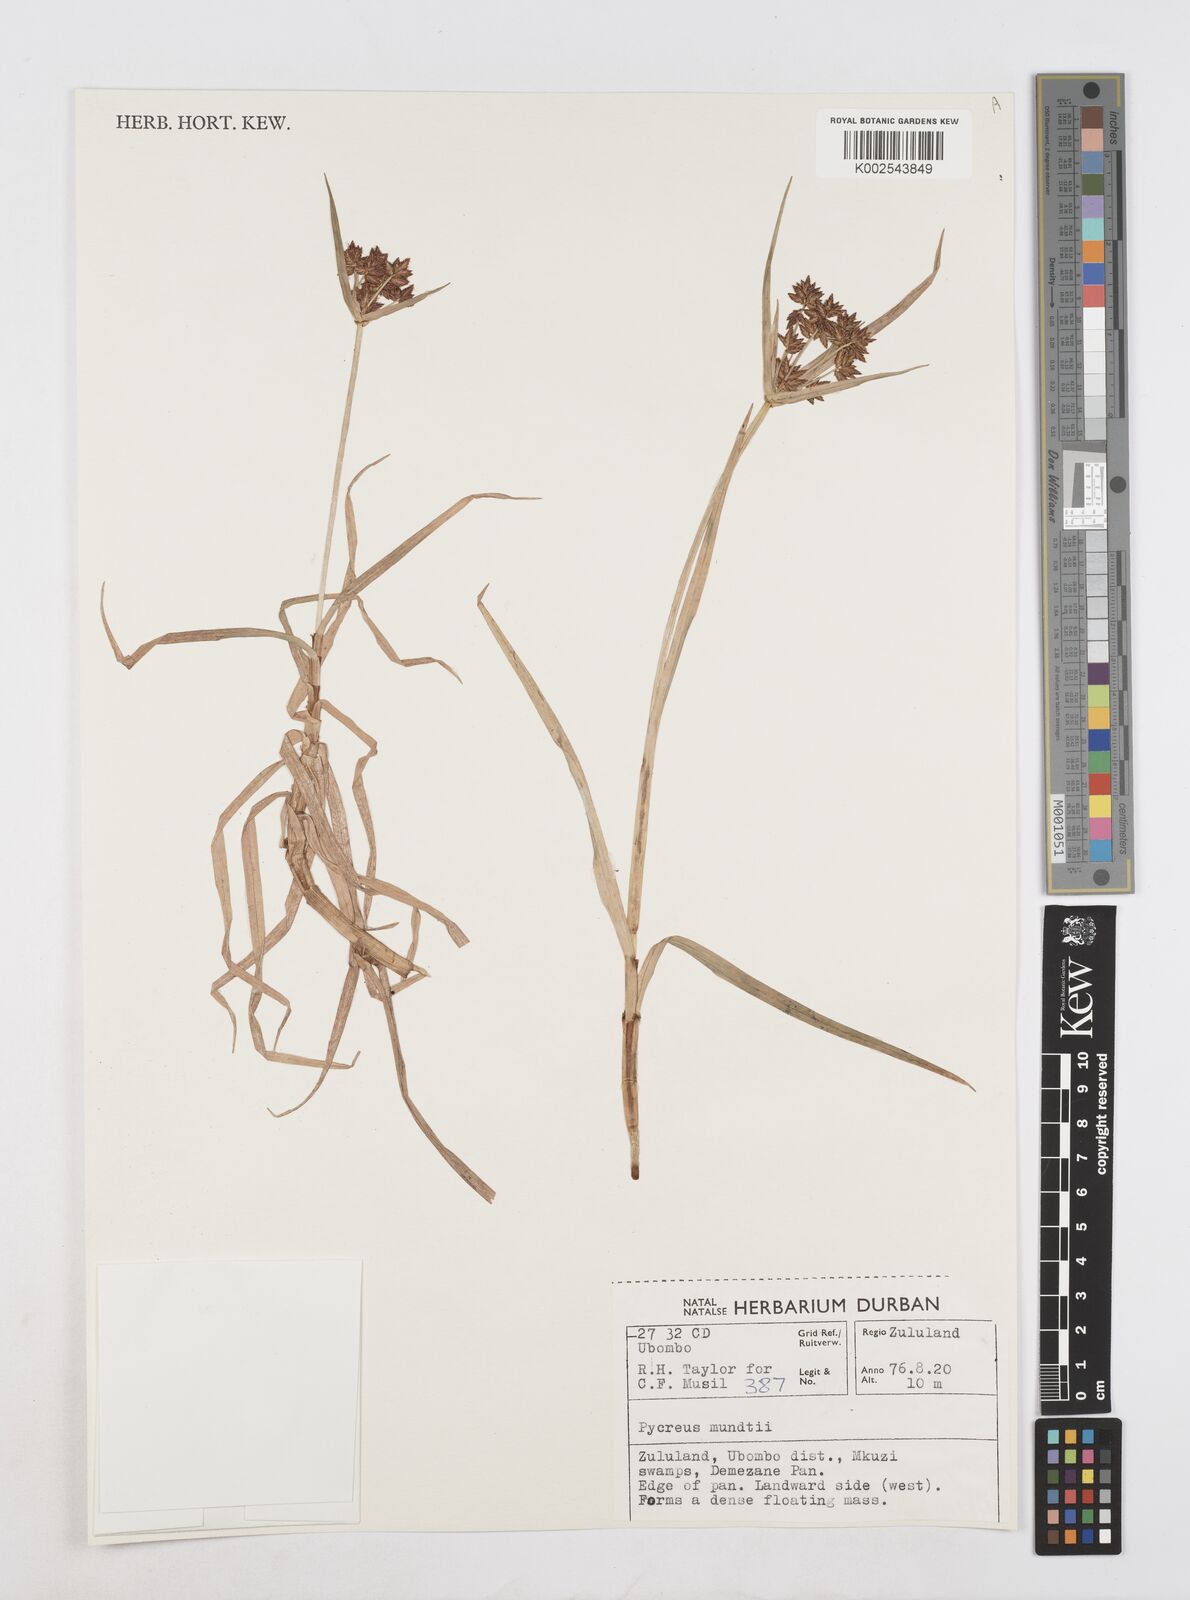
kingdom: Plantae
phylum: Tracheophyta
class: Liliopsida
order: Poales
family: Cyperaceae
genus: Cyperus
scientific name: Cyperus mundii
